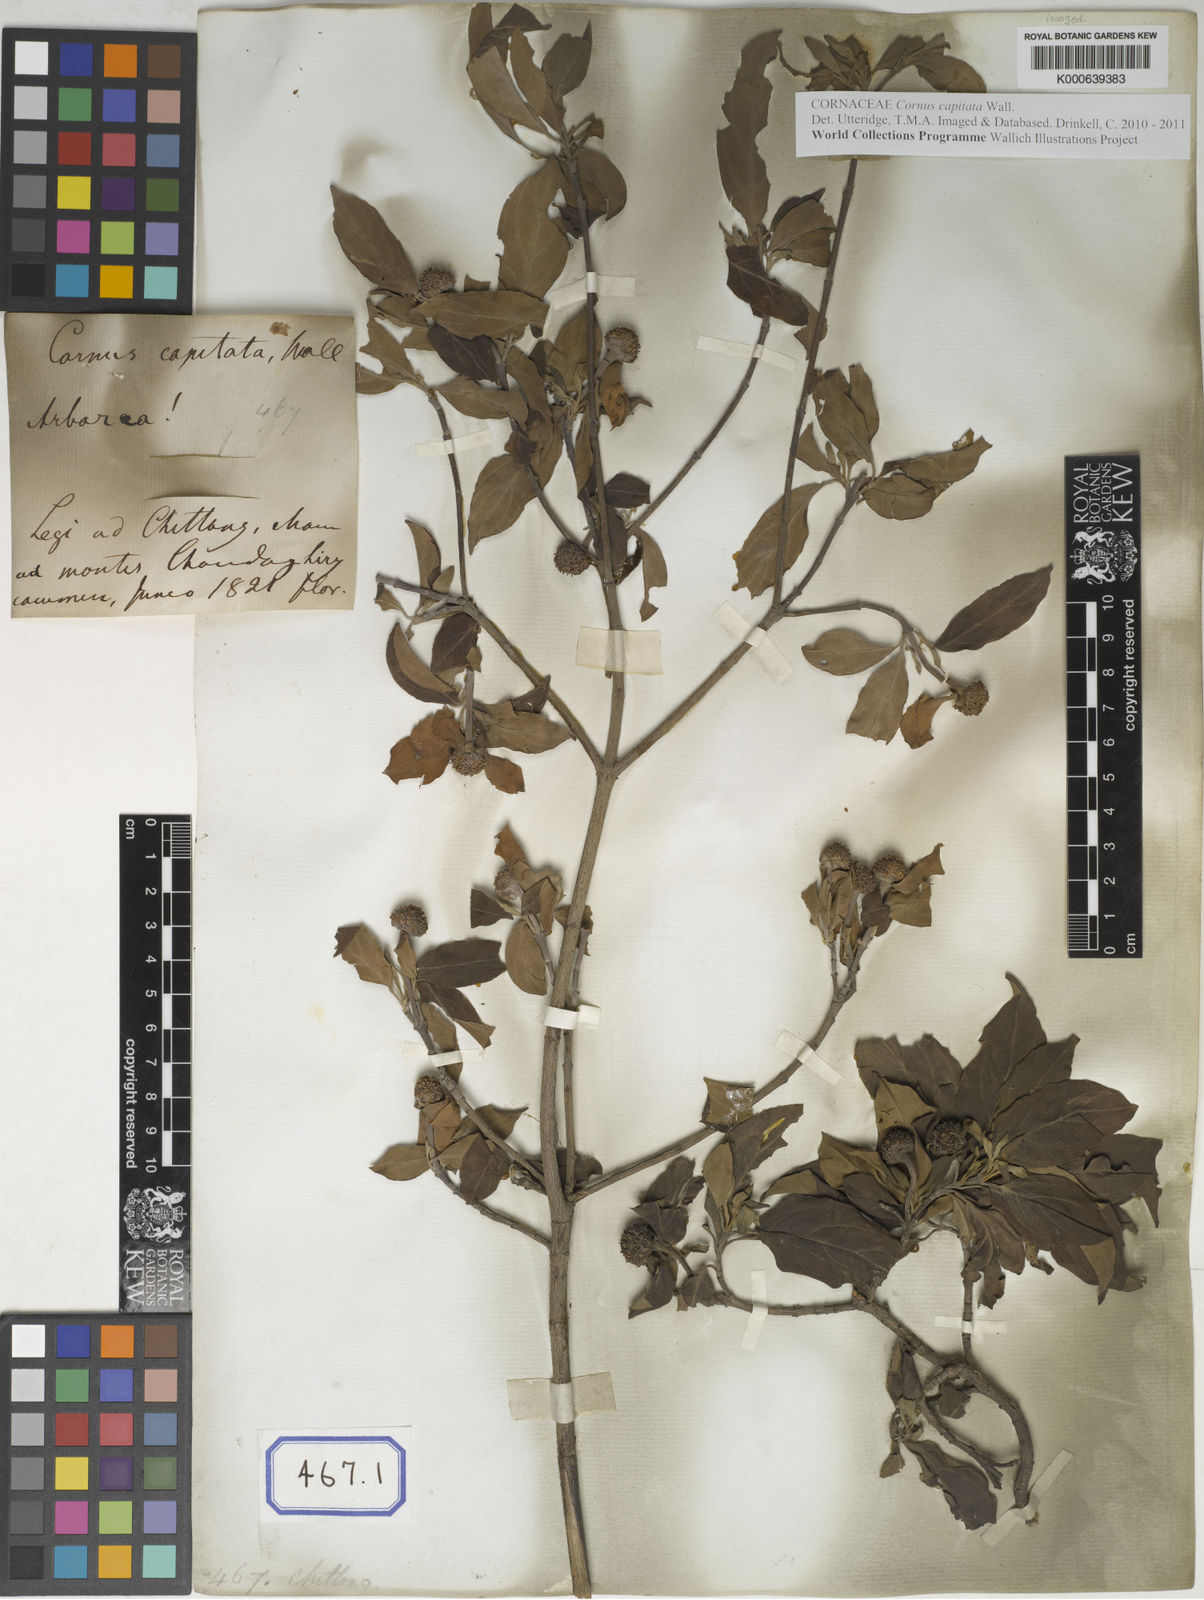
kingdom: Plantae
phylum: Tracheophyta
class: Magnoliopsida
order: Cornales
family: Cornaceae
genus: Cornus
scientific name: Cornus capitata
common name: Bentham's cornel
